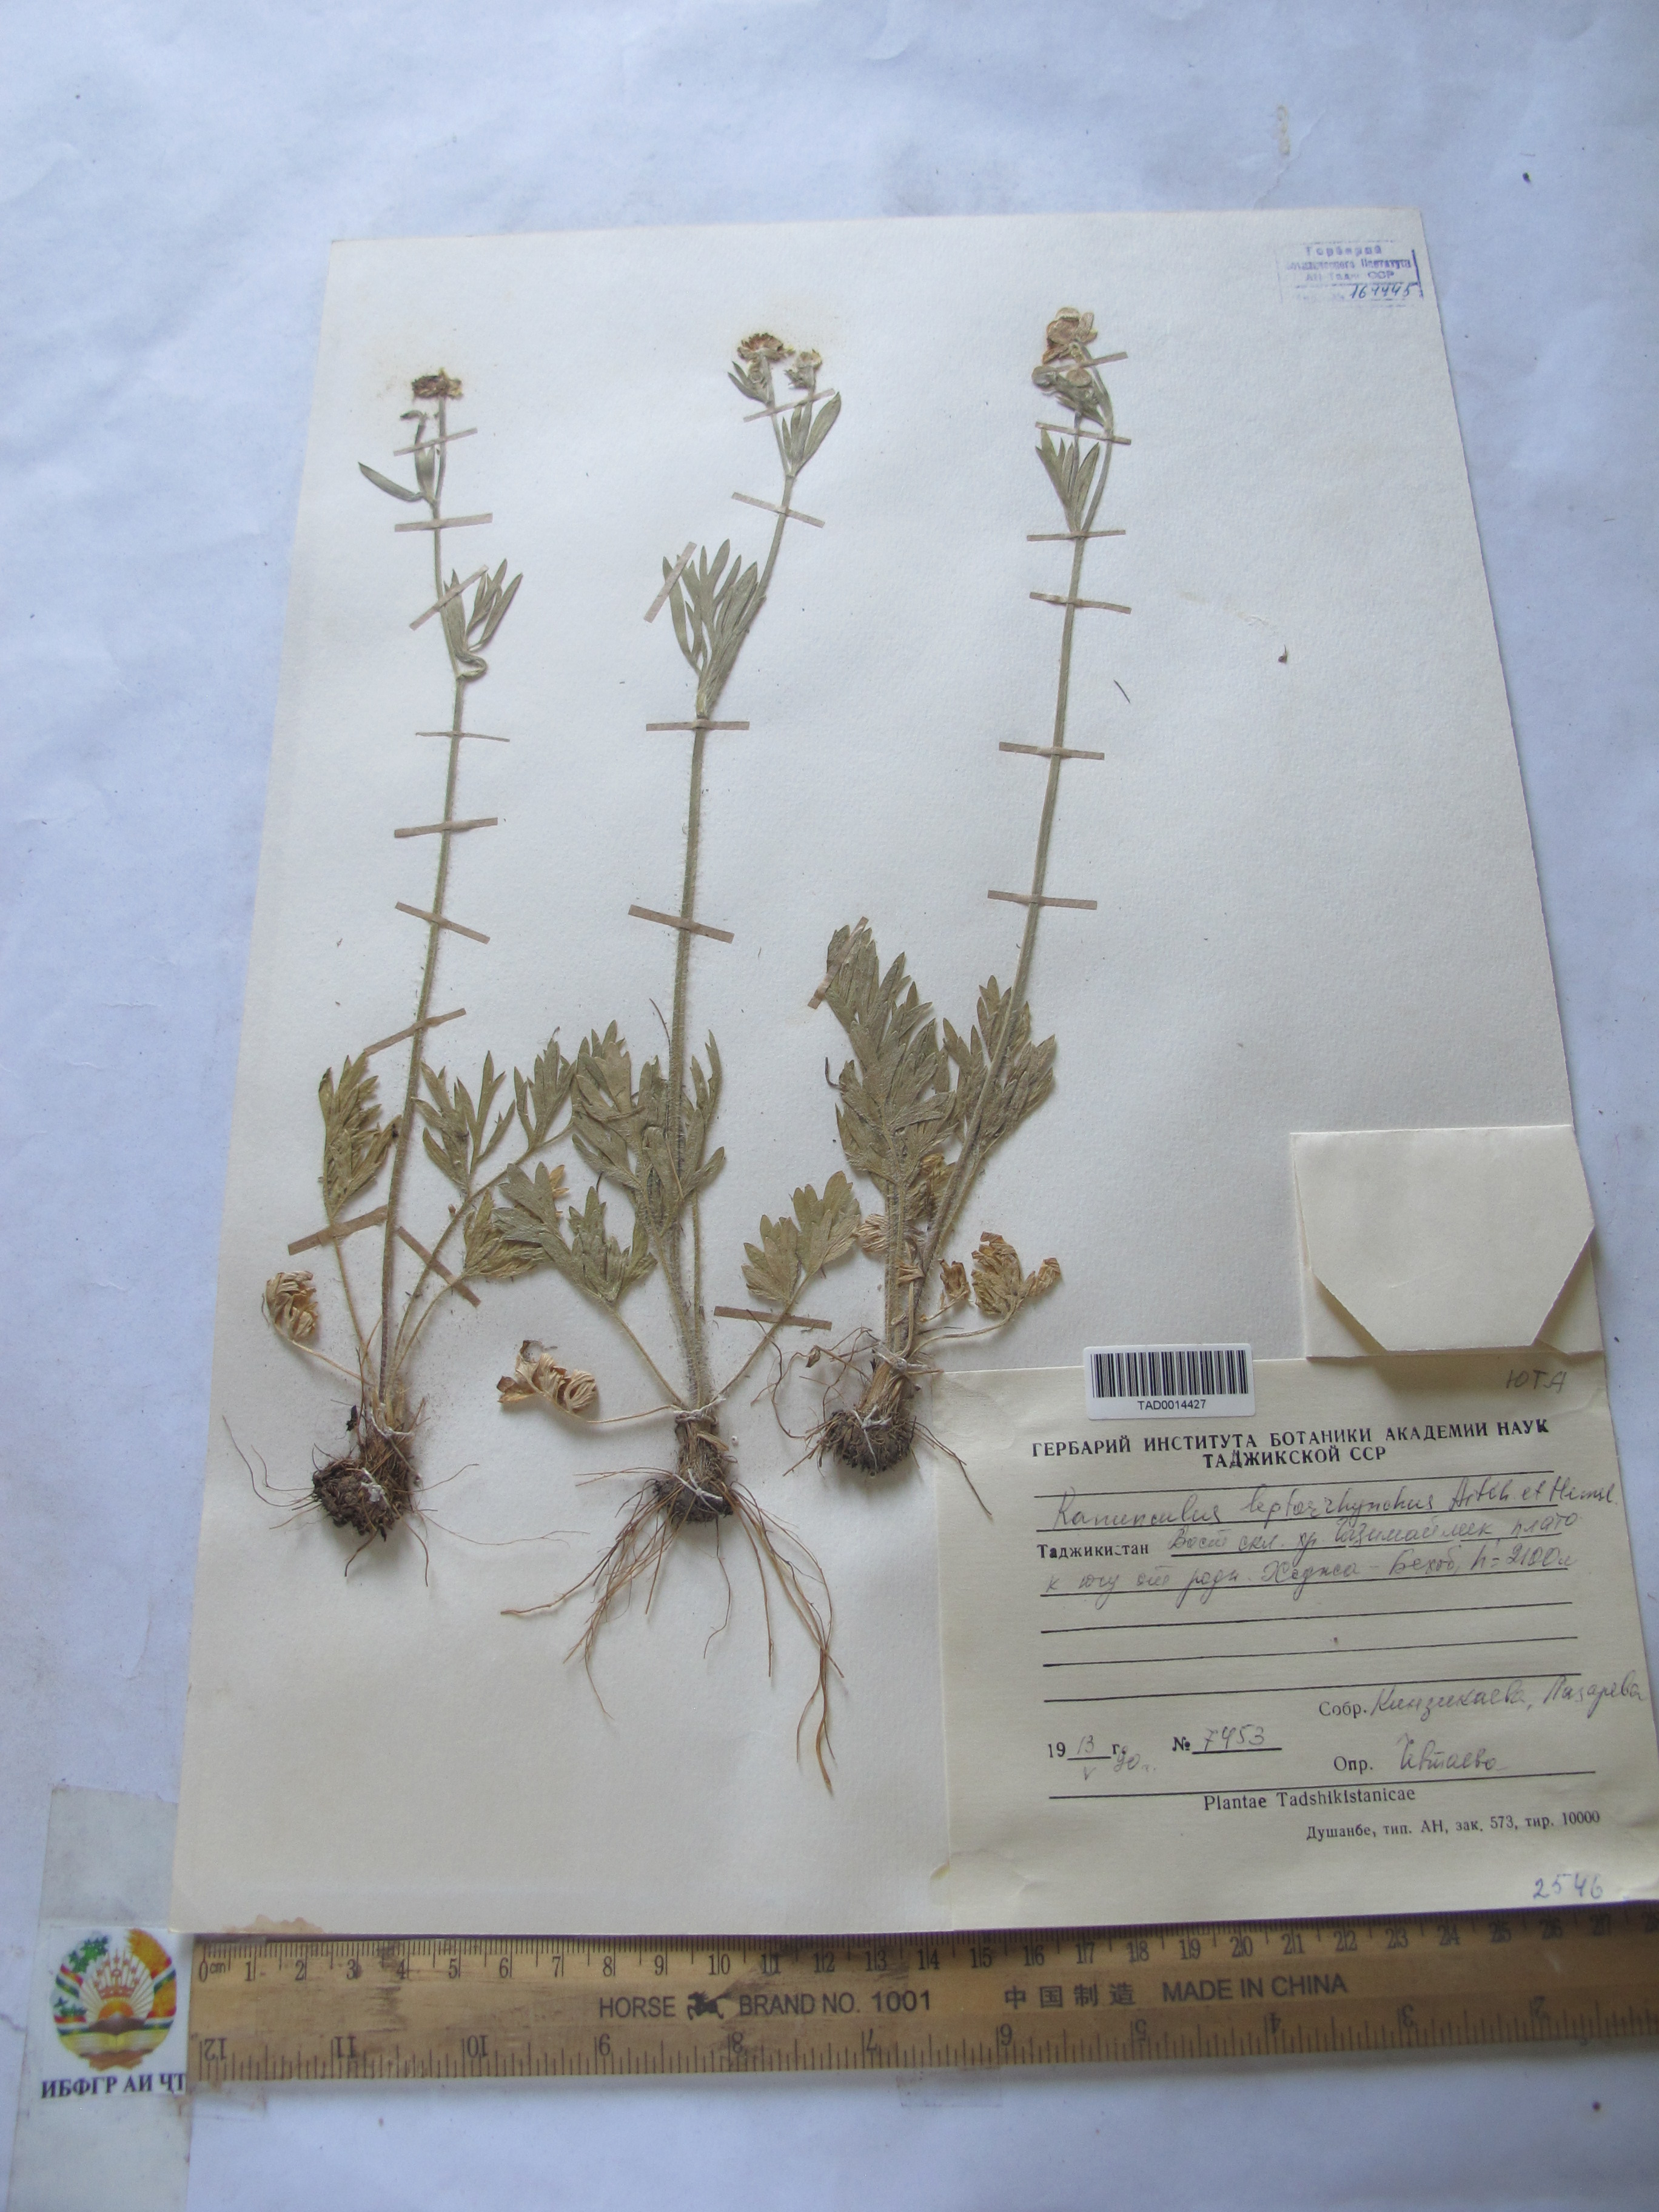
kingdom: Plantae
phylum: Tracheophyta
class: Magnoliopsida
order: Ranunculales
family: Ranunculaceae
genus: Ranunculus
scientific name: Ranunculus leptorrhynchus
